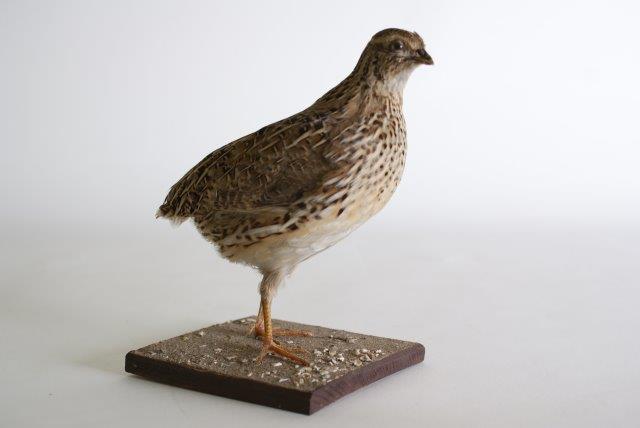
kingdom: Animalia
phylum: Chordata
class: Aves
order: Charadriiformes
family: Charadriidae
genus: Pluvialis
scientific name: Pluvialis apricaria
